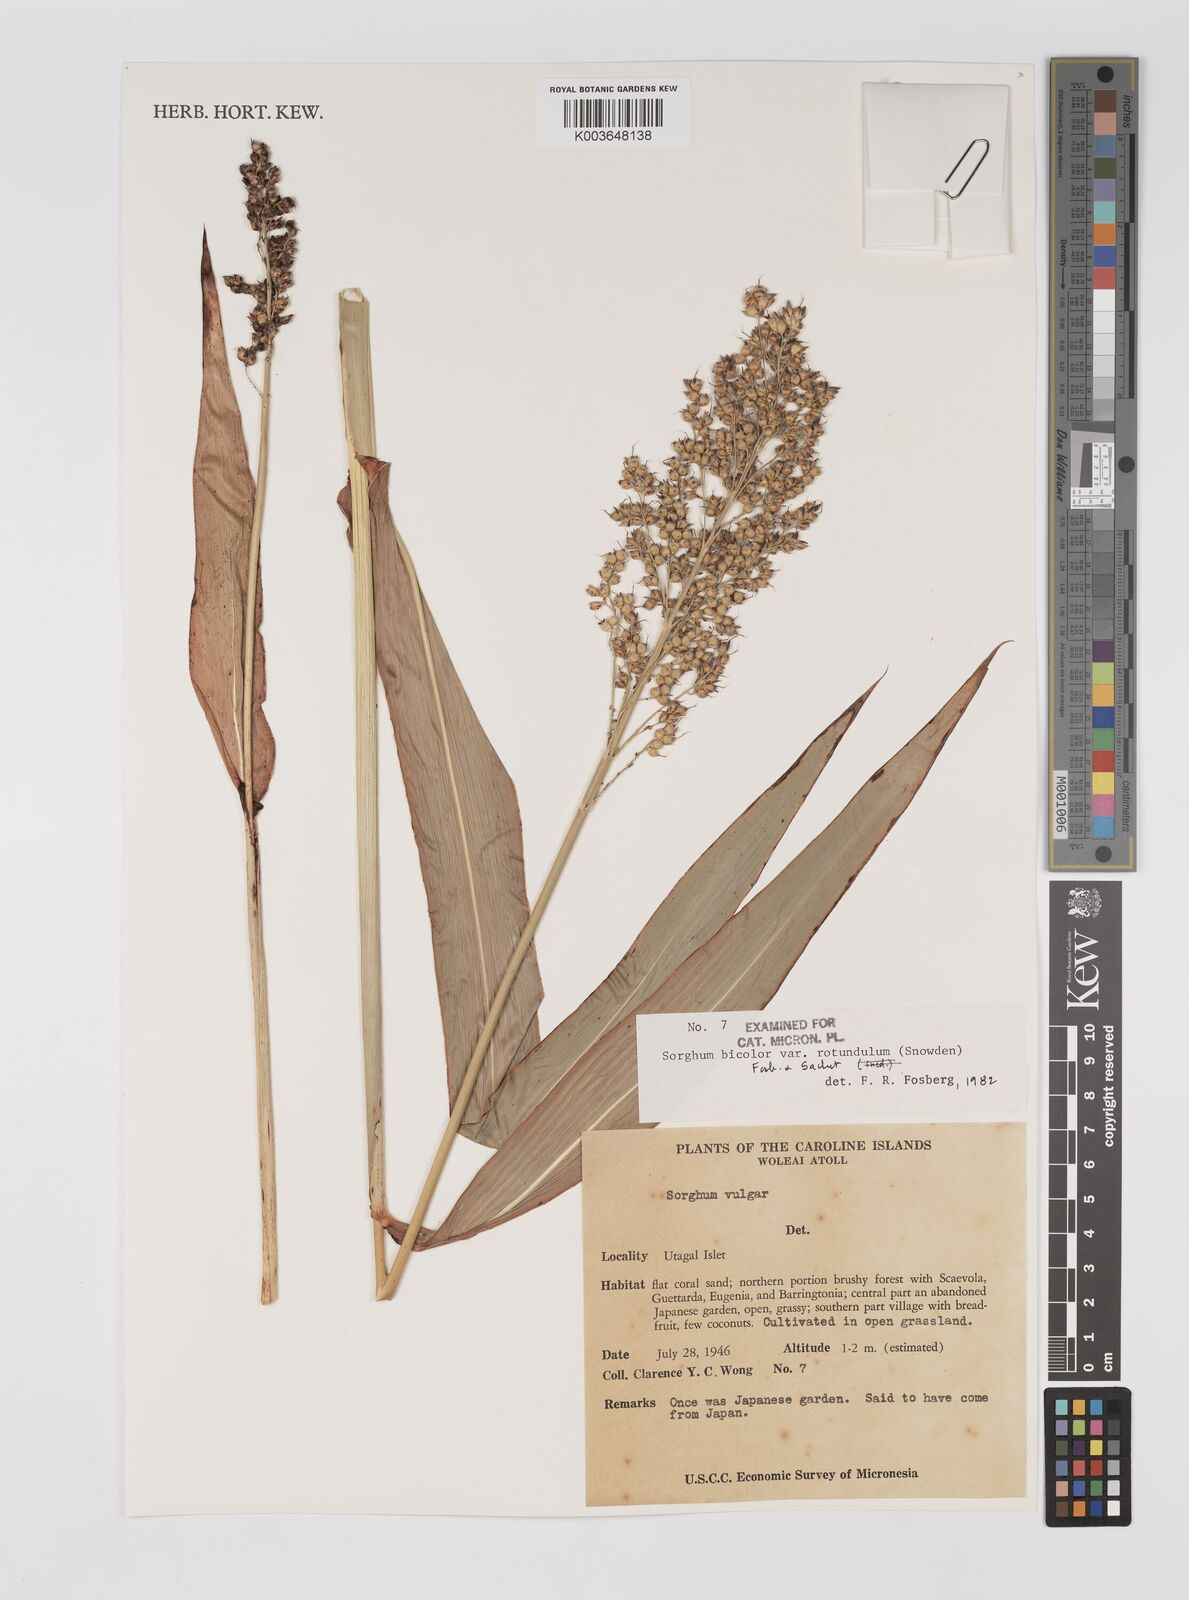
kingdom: Plantae
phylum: Tracheophyta
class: Liliopsida
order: Poales
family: Poaceae
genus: Sorghum
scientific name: Sorghum bicolor
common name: Sorghum
